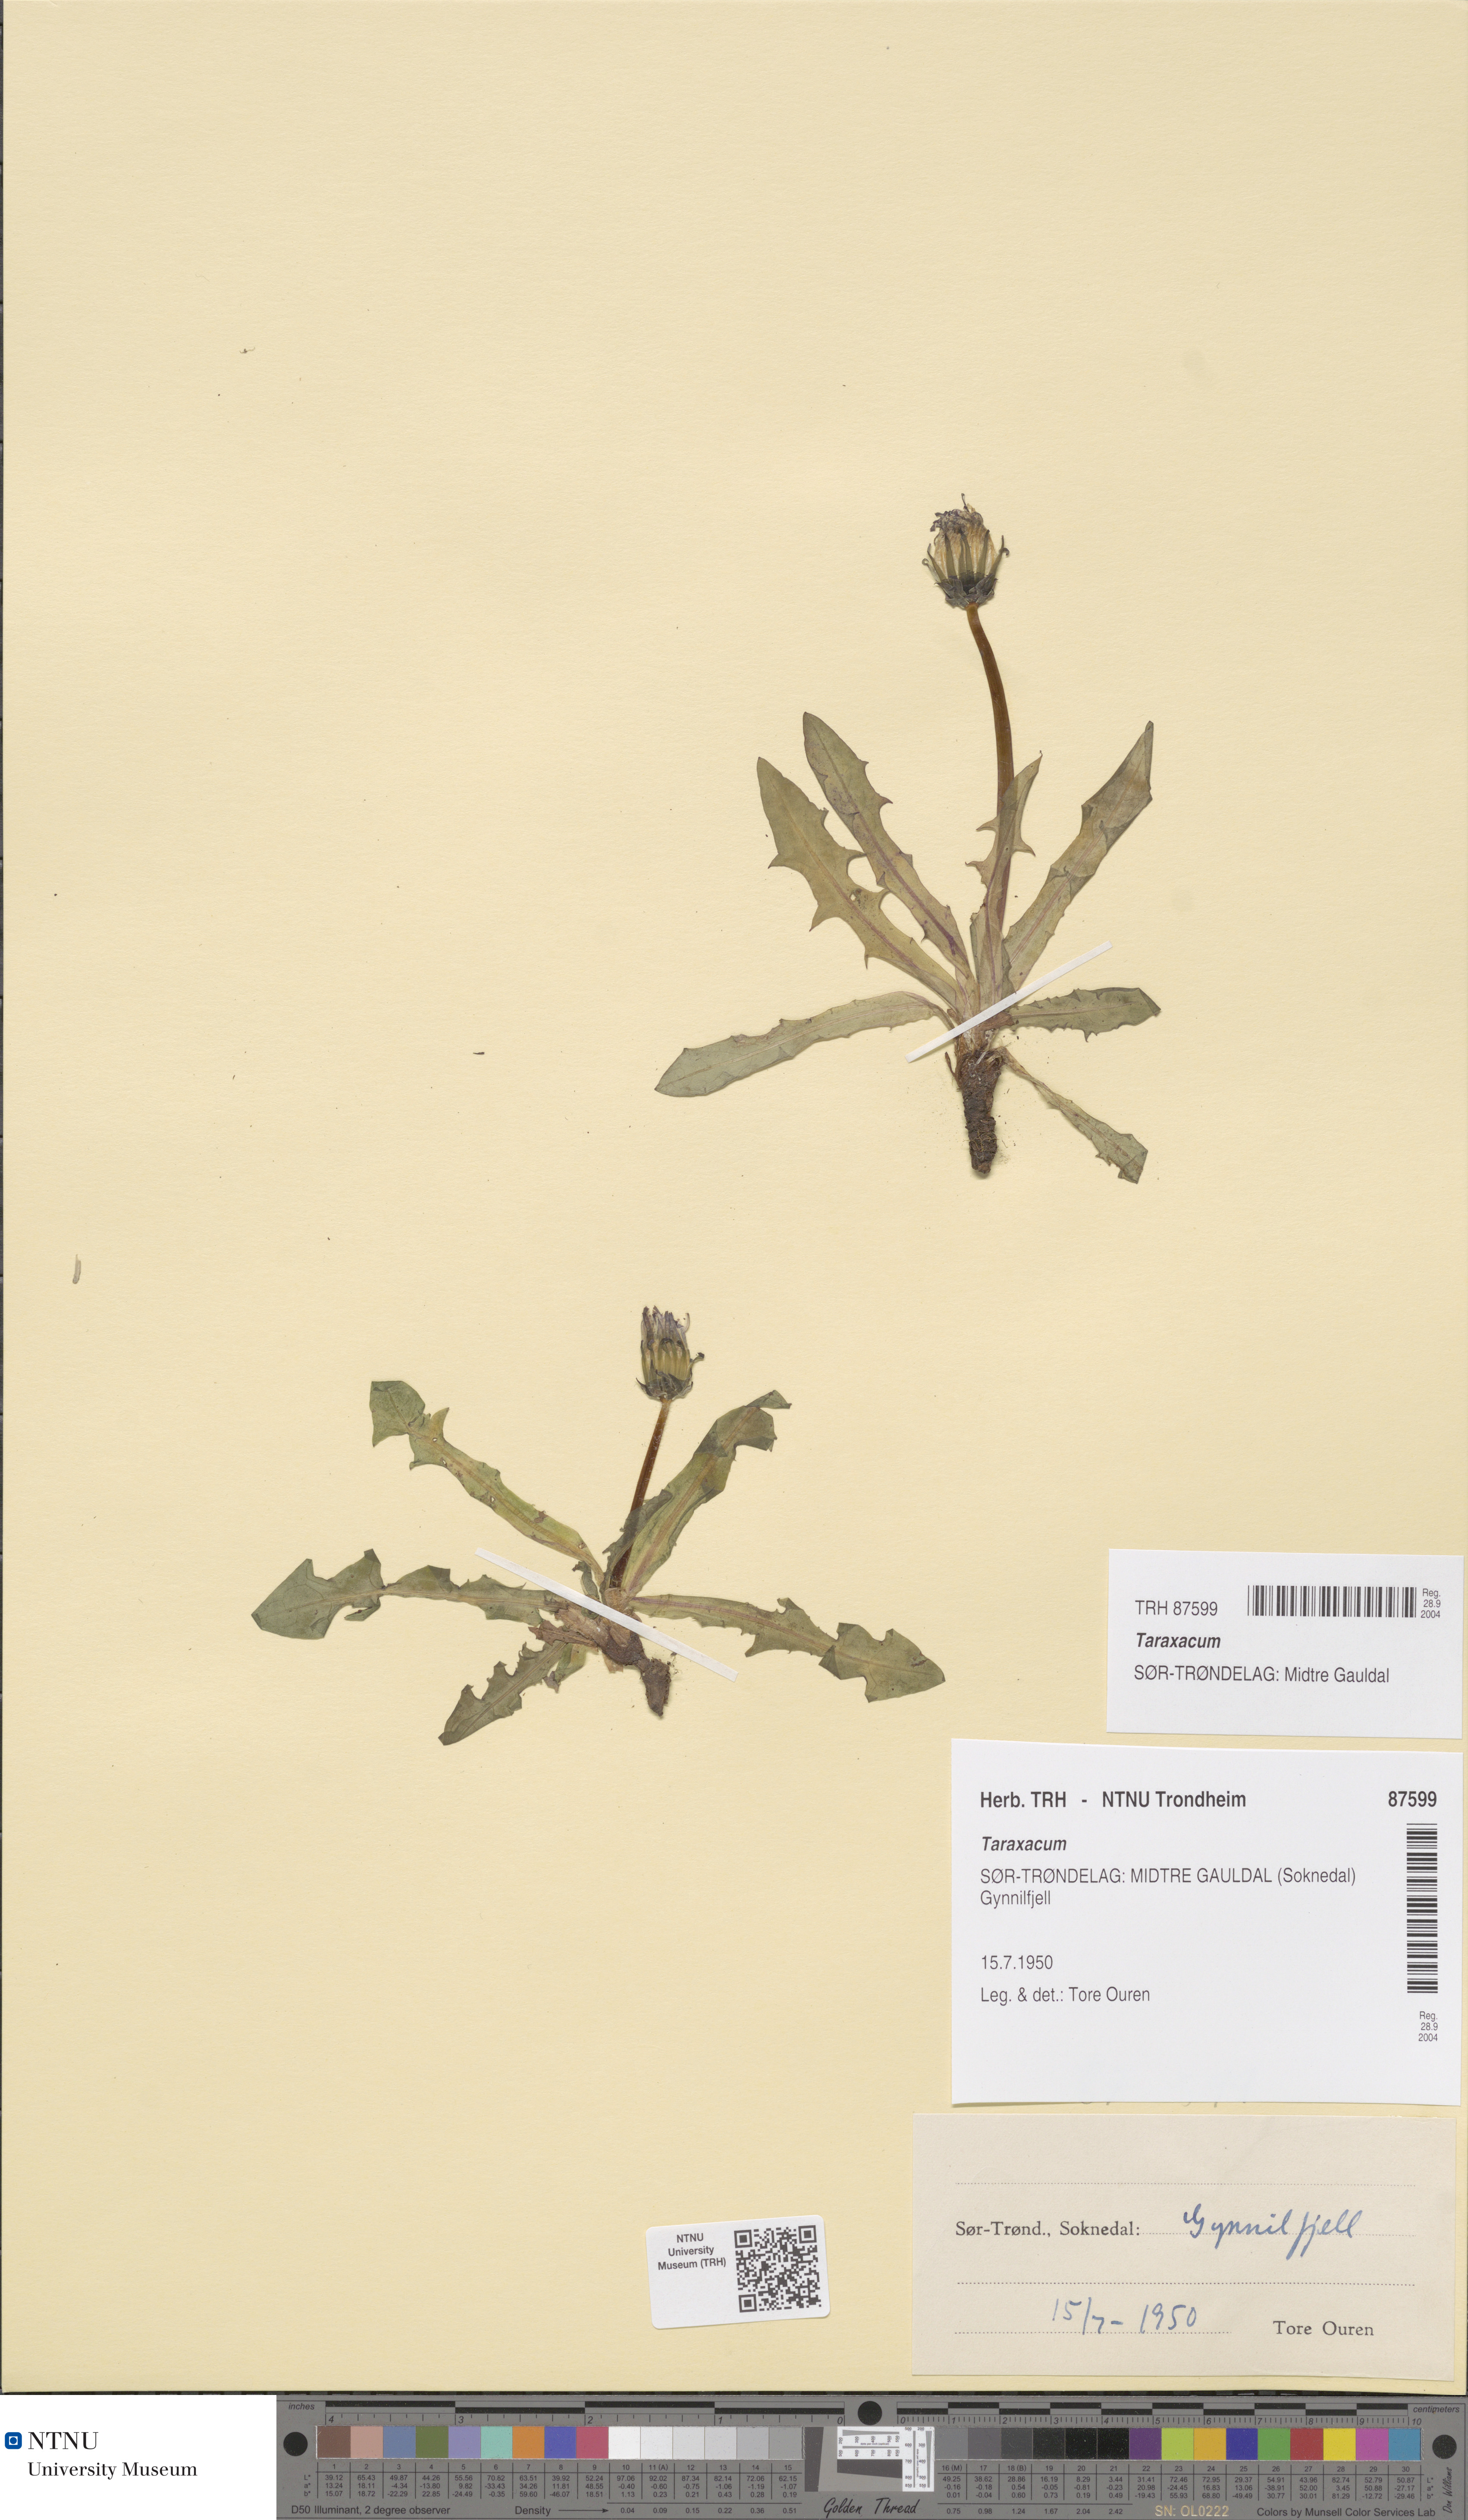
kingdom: Plantae
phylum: Tracheophyta
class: Magnoliopsida
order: Asterales
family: Asteraceae
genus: Taraxacum
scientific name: Taraxacum
